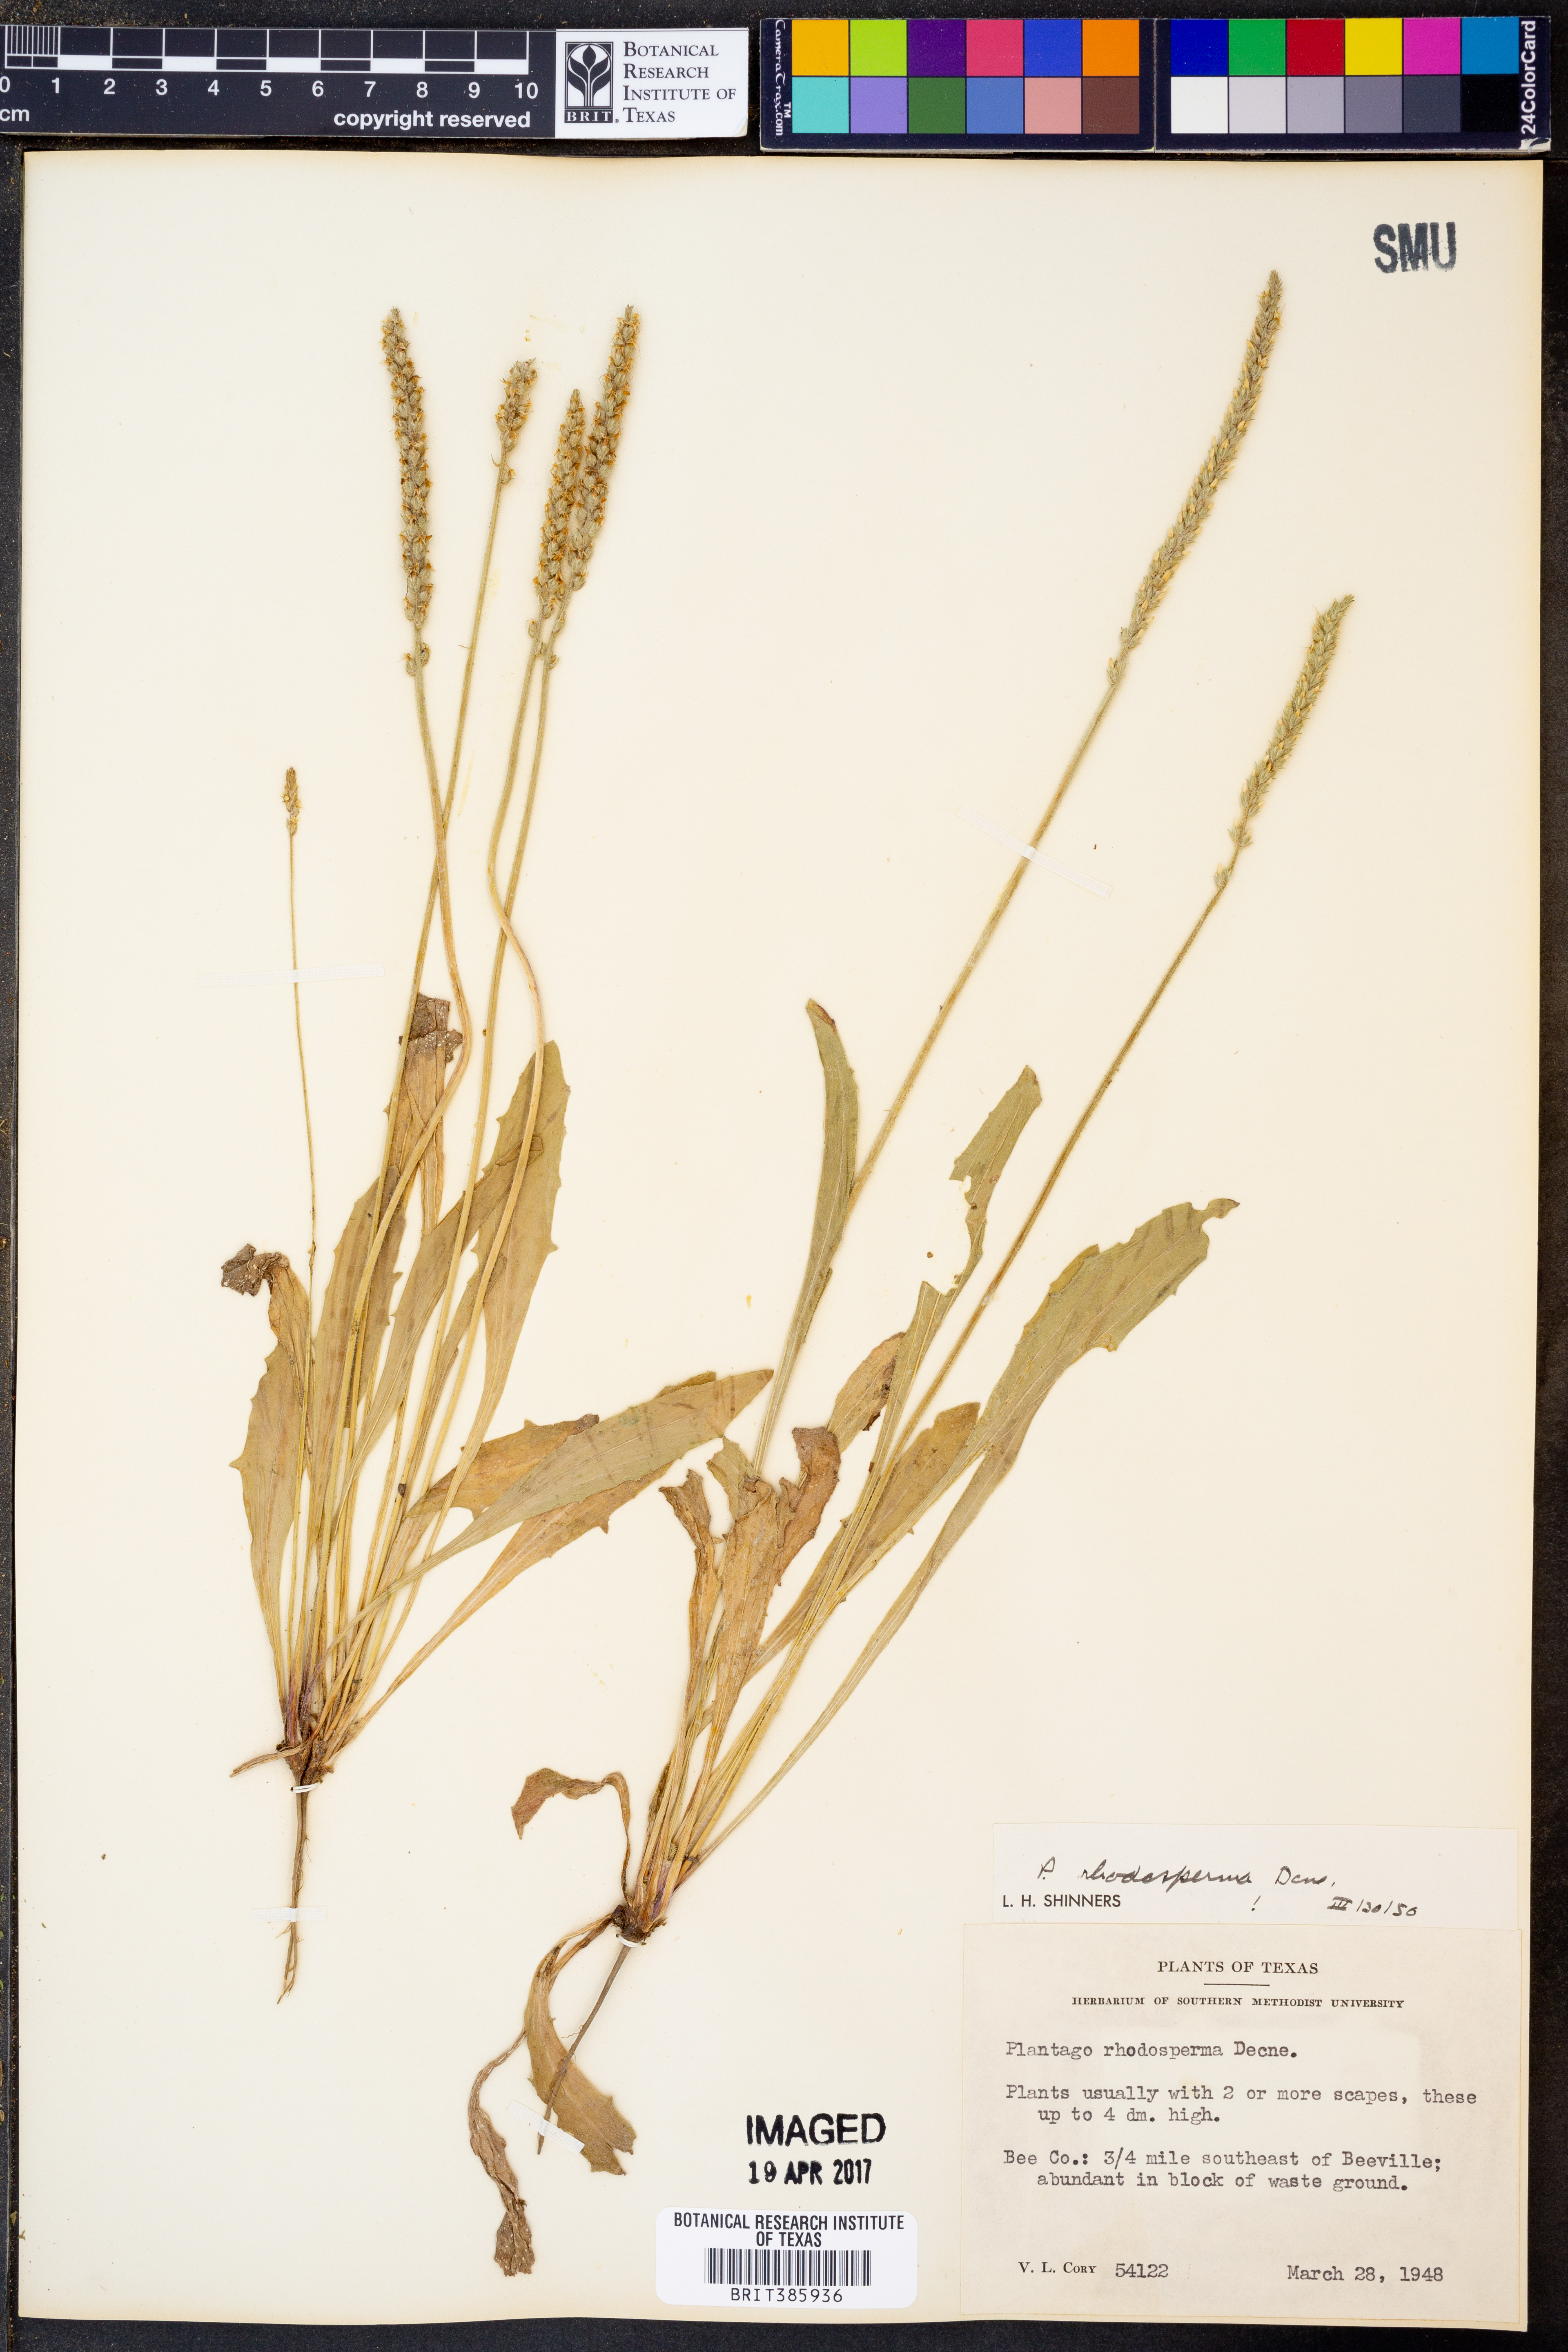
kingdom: Plantae
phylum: Tracheophyta
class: Magnoliopsida
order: Lamiales
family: Plantaginaceae
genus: Plantago
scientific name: Plantago rhodosperma
